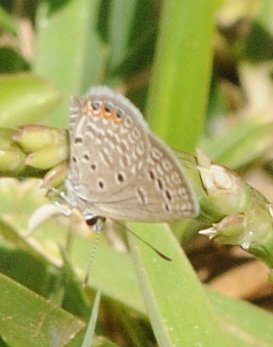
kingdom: Animalia
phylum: Arthropoda
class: Insecta
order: Lepidoptera
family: Lycaenidae
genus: Freyeria
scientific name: Freyeria trochylus
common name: Grass Jewel
